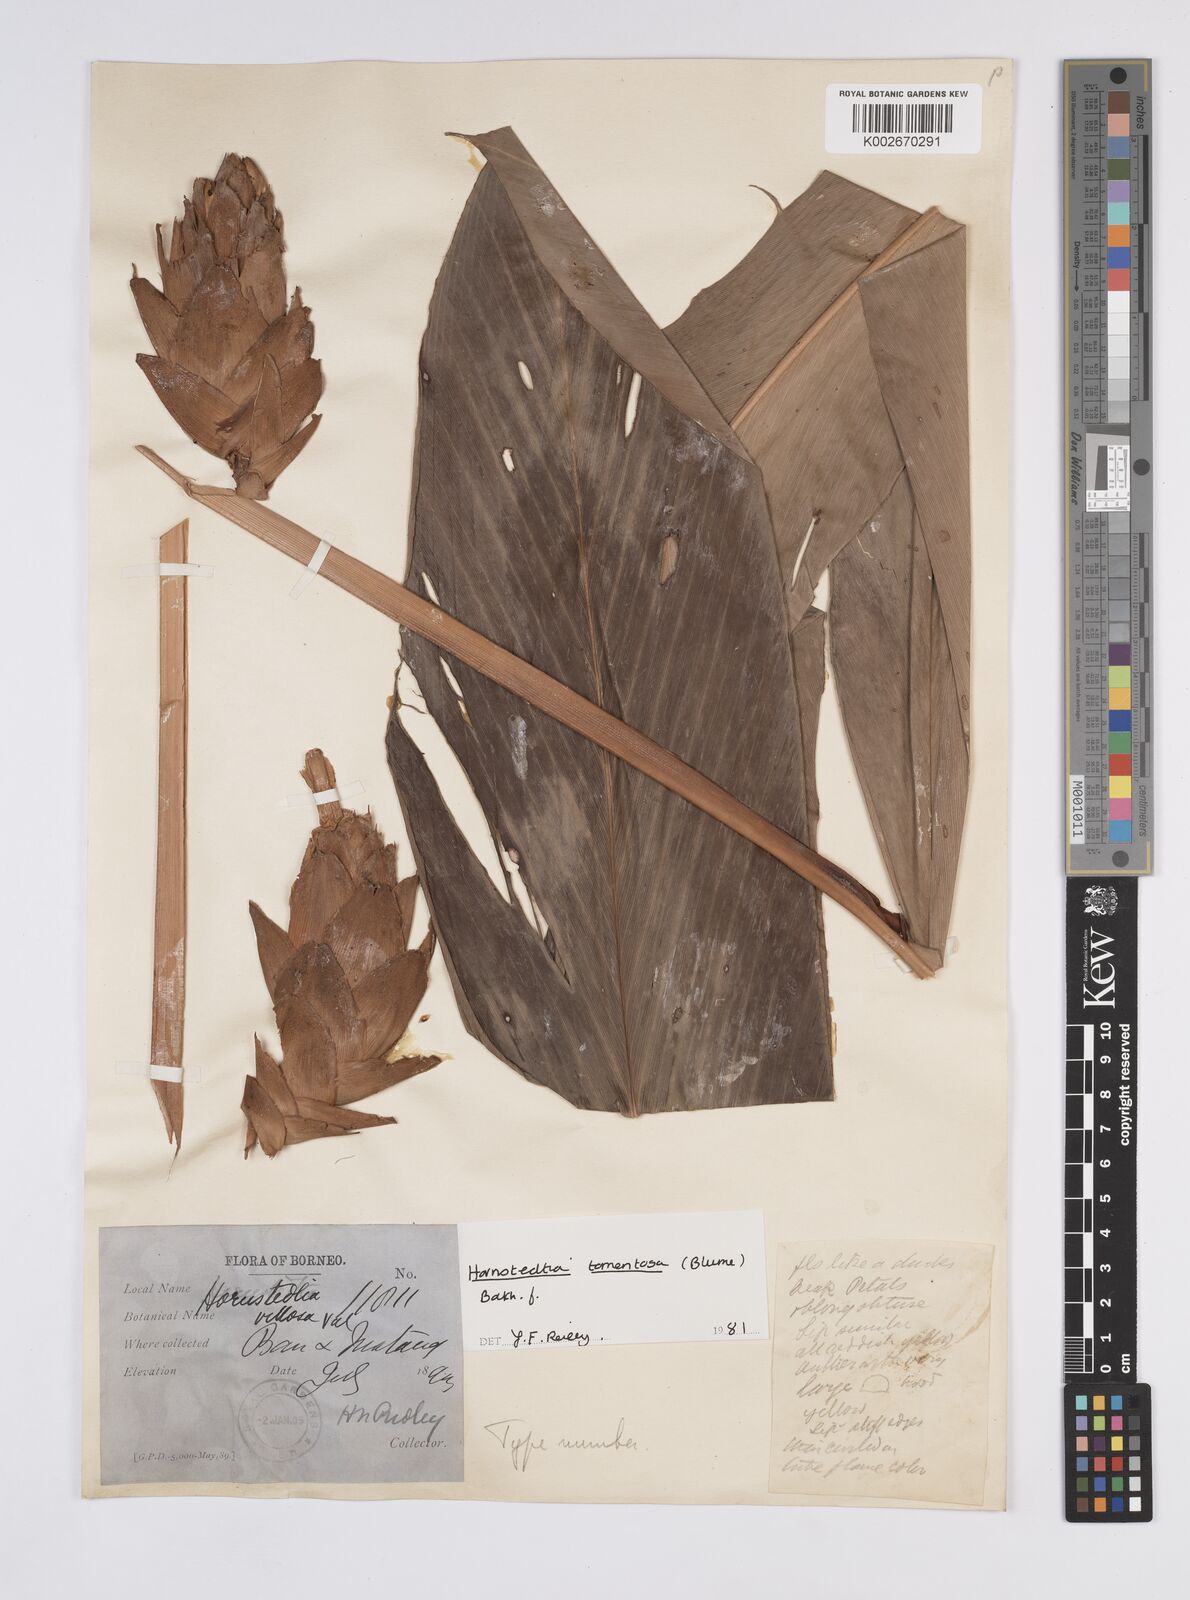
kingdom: Plantae
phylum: Tracheophyta
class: Liliopsida
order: Zingiberales
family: Zingiberaceae
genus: Hornstedtia
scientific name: Hornstedtia tomentosa
